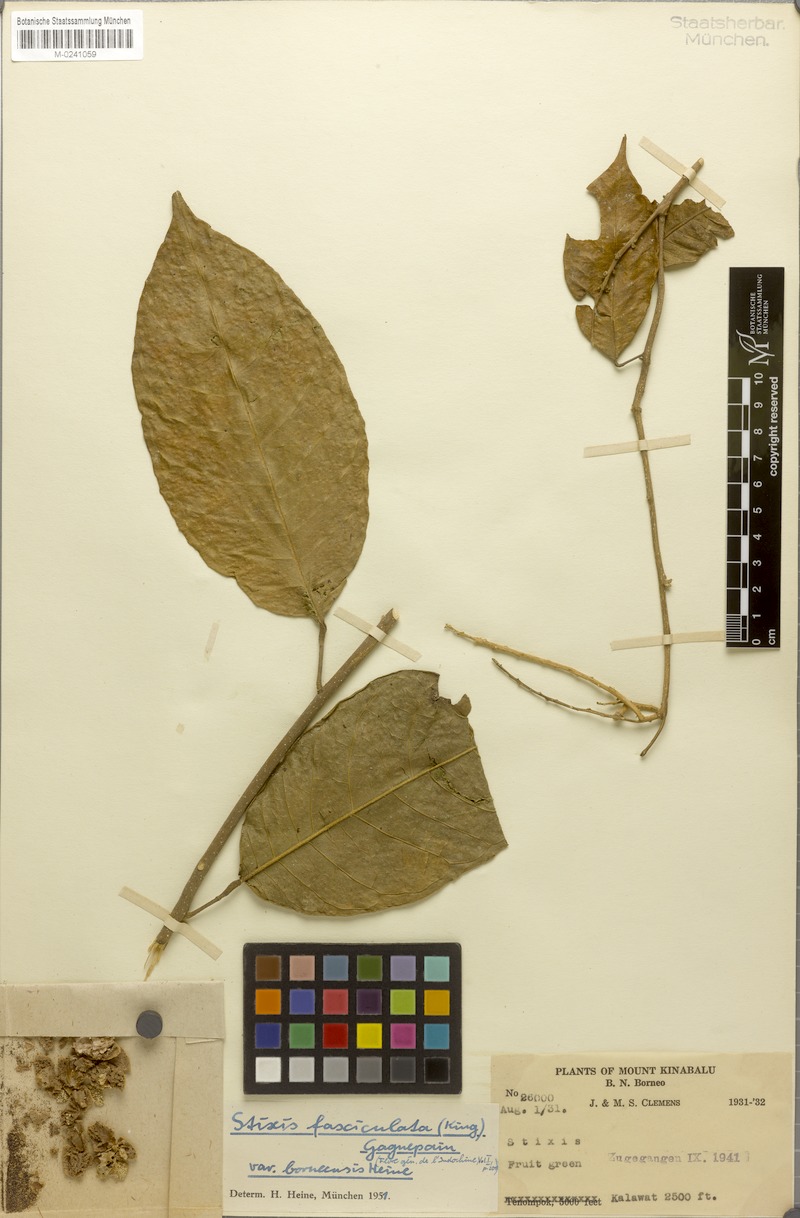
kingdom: Plantae
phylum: Tracheophyta
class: Magnoliopsida
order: Brassicales
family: Stixaceae
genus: Stixis
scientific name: Stixis ovata
